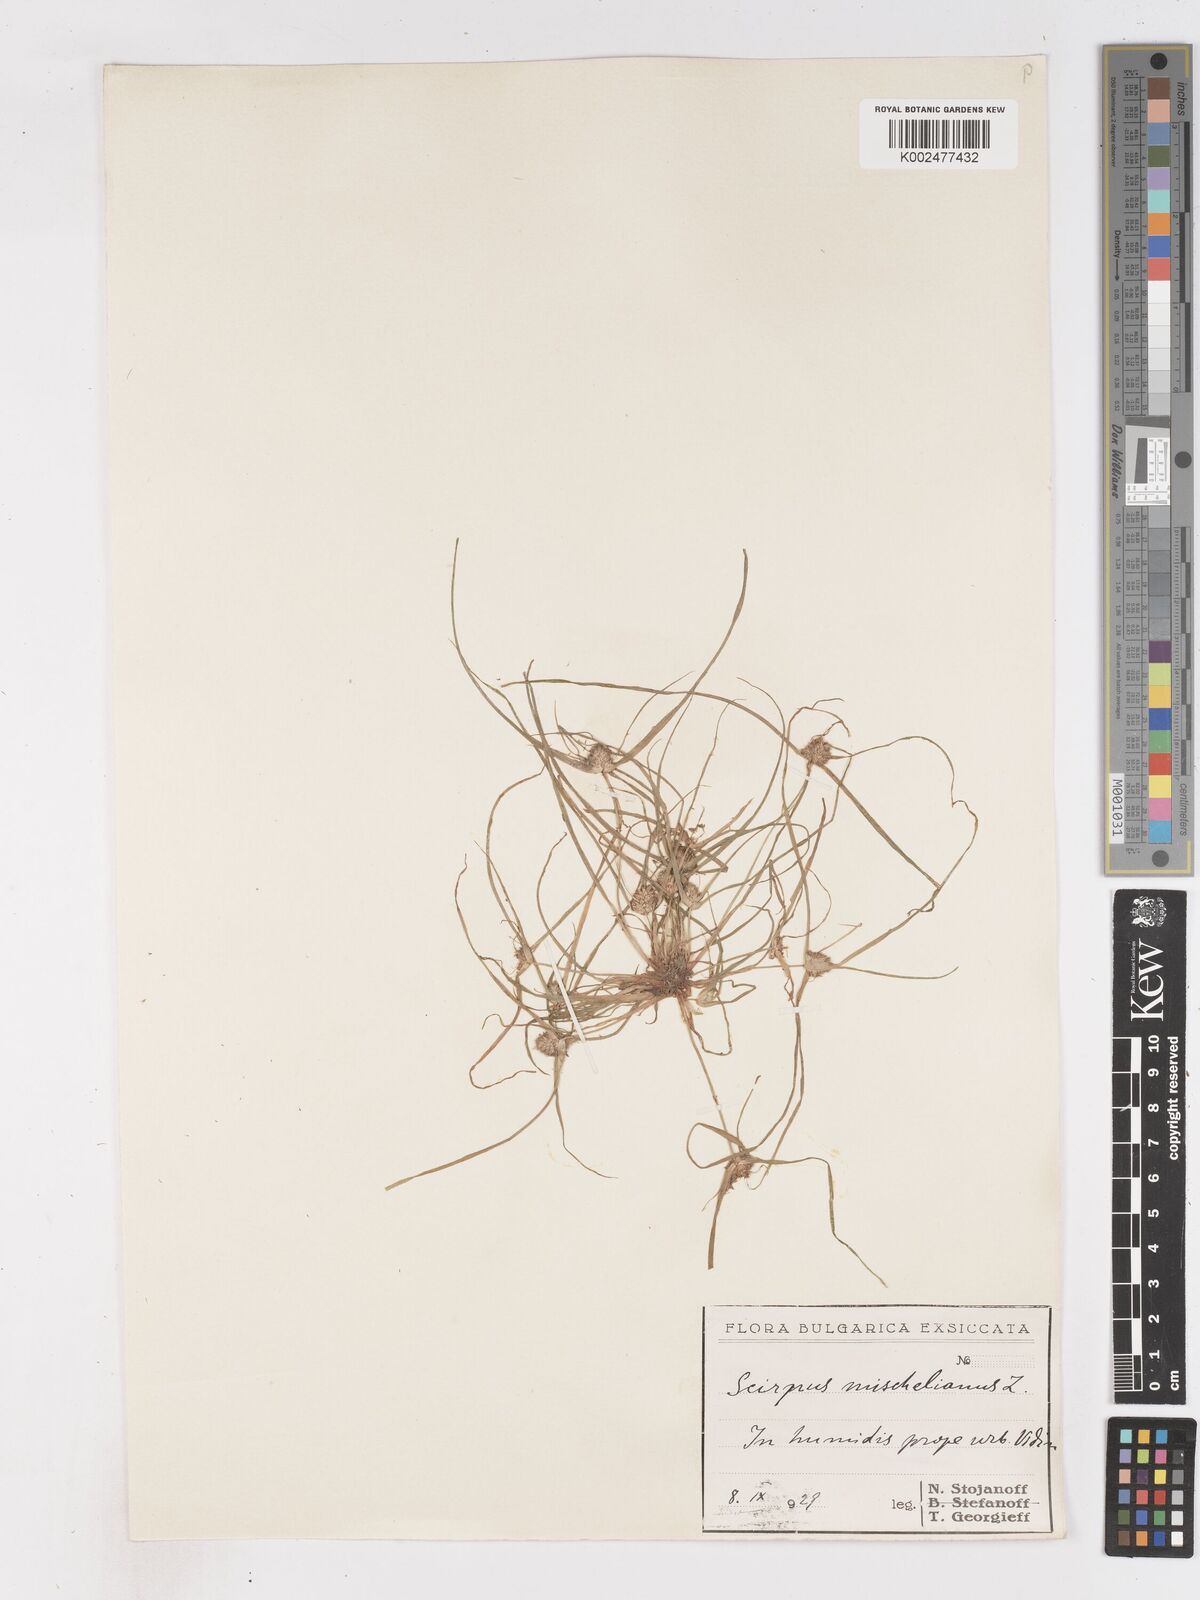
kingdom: Plantae
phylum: Tracheophyta
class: Liliopsida
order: Poales
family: Cyperaceae
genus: Cyperus
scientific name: Cyperus michelianus
